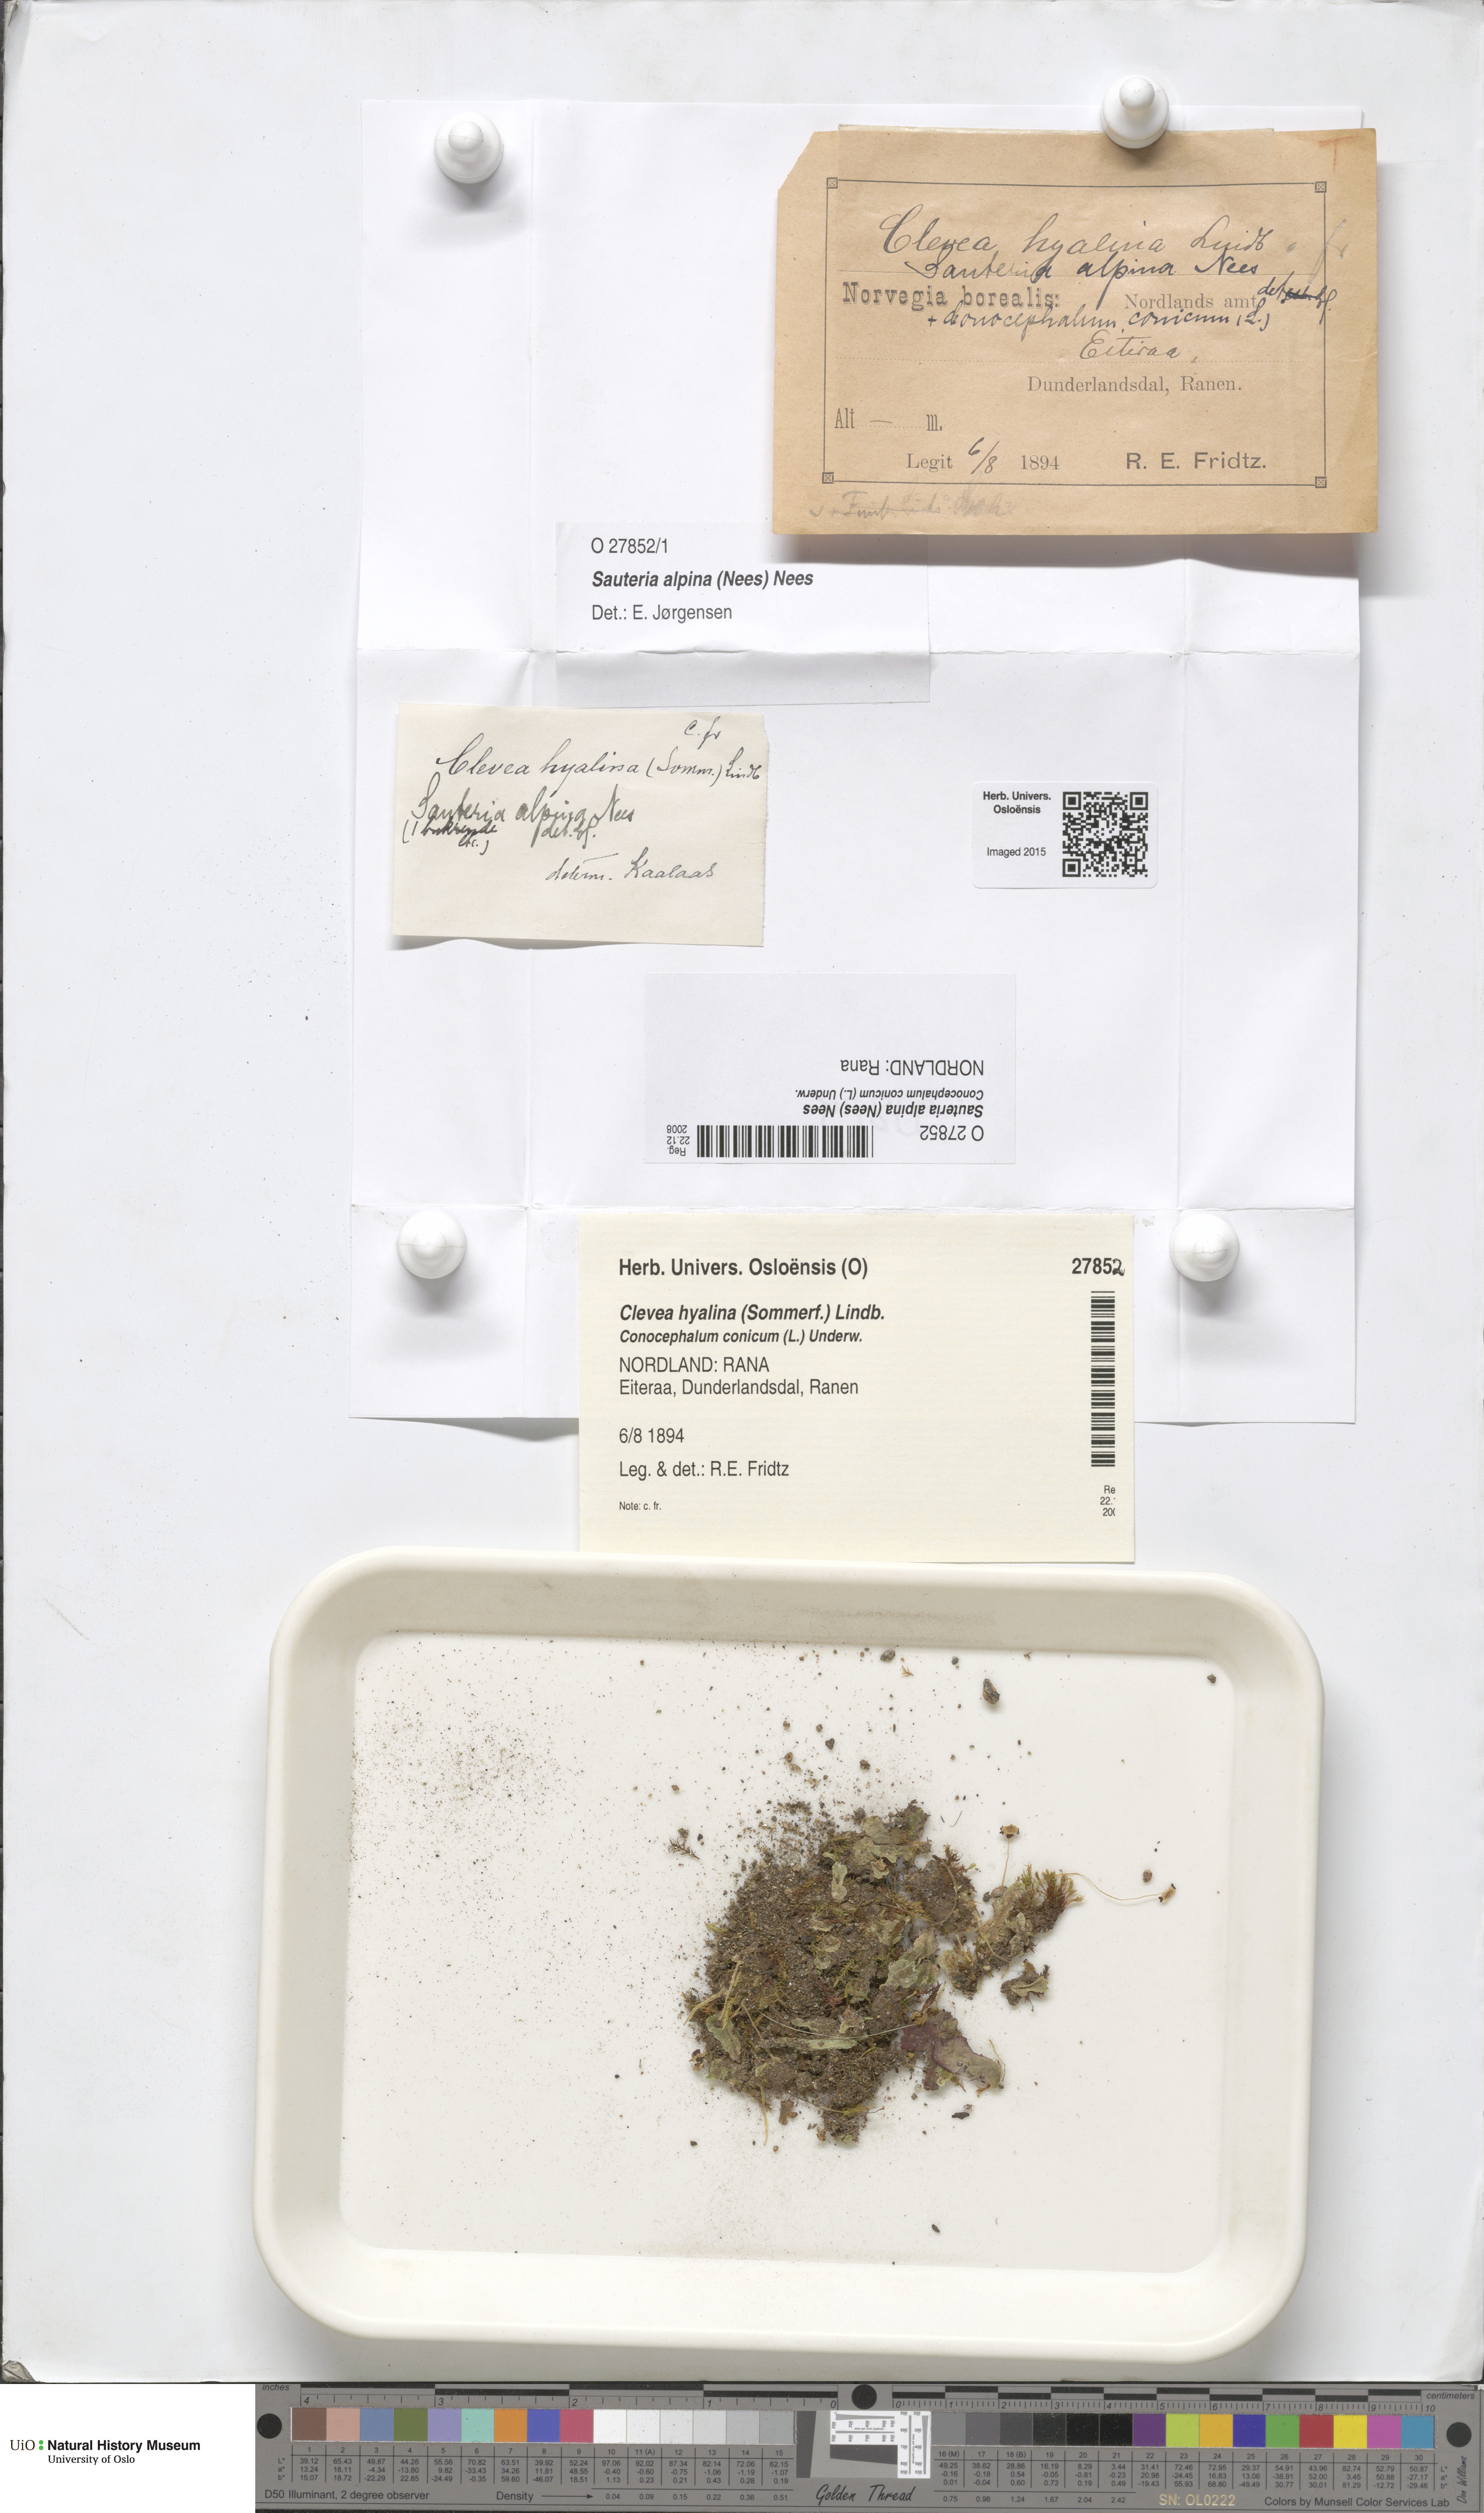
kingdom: Plantae
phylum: Marchantiophyta
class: Marchantiopsida
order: Marchantiales
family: Cleveaceae
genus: Sauteria
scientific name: Sauteria alpina
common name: Snow lungwort
